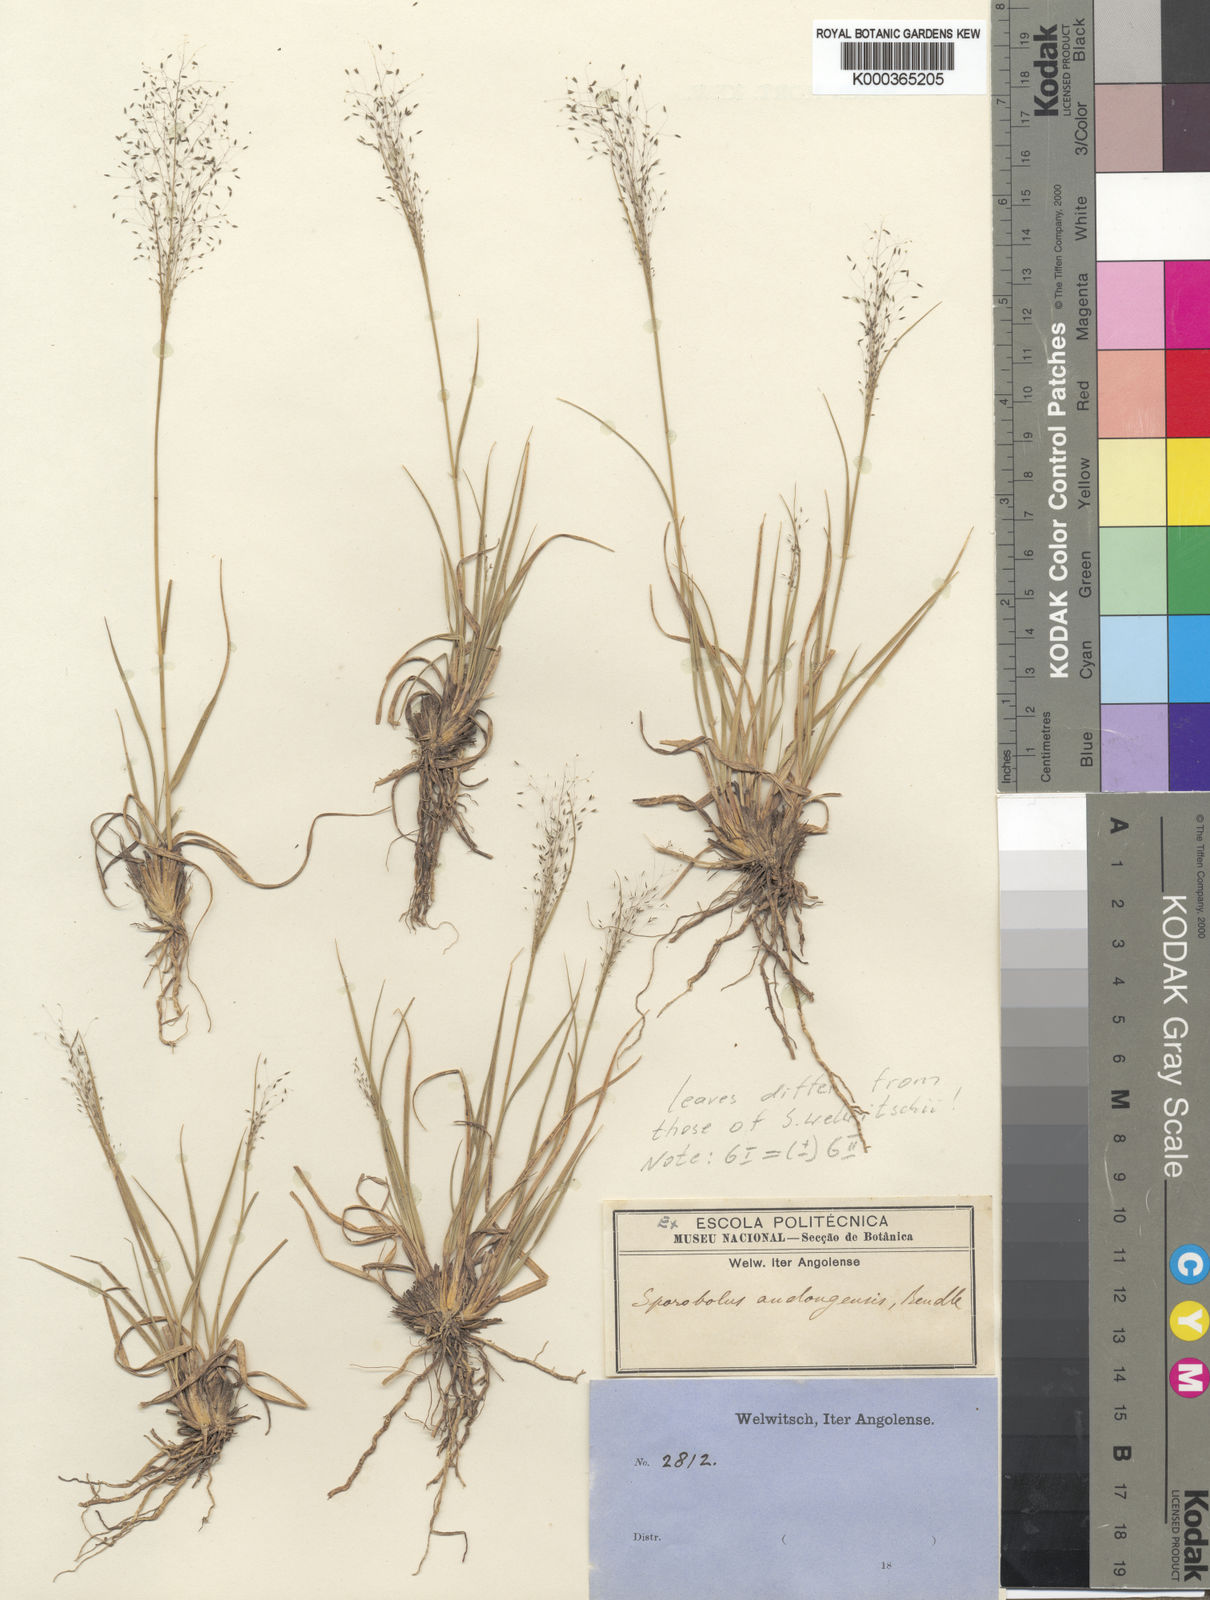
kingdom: Plantae
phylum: Tracheophyta
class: Liliopsida
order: Poales
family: Poaceae
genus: Sporobolus
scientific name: Sporobolus welwitschii
